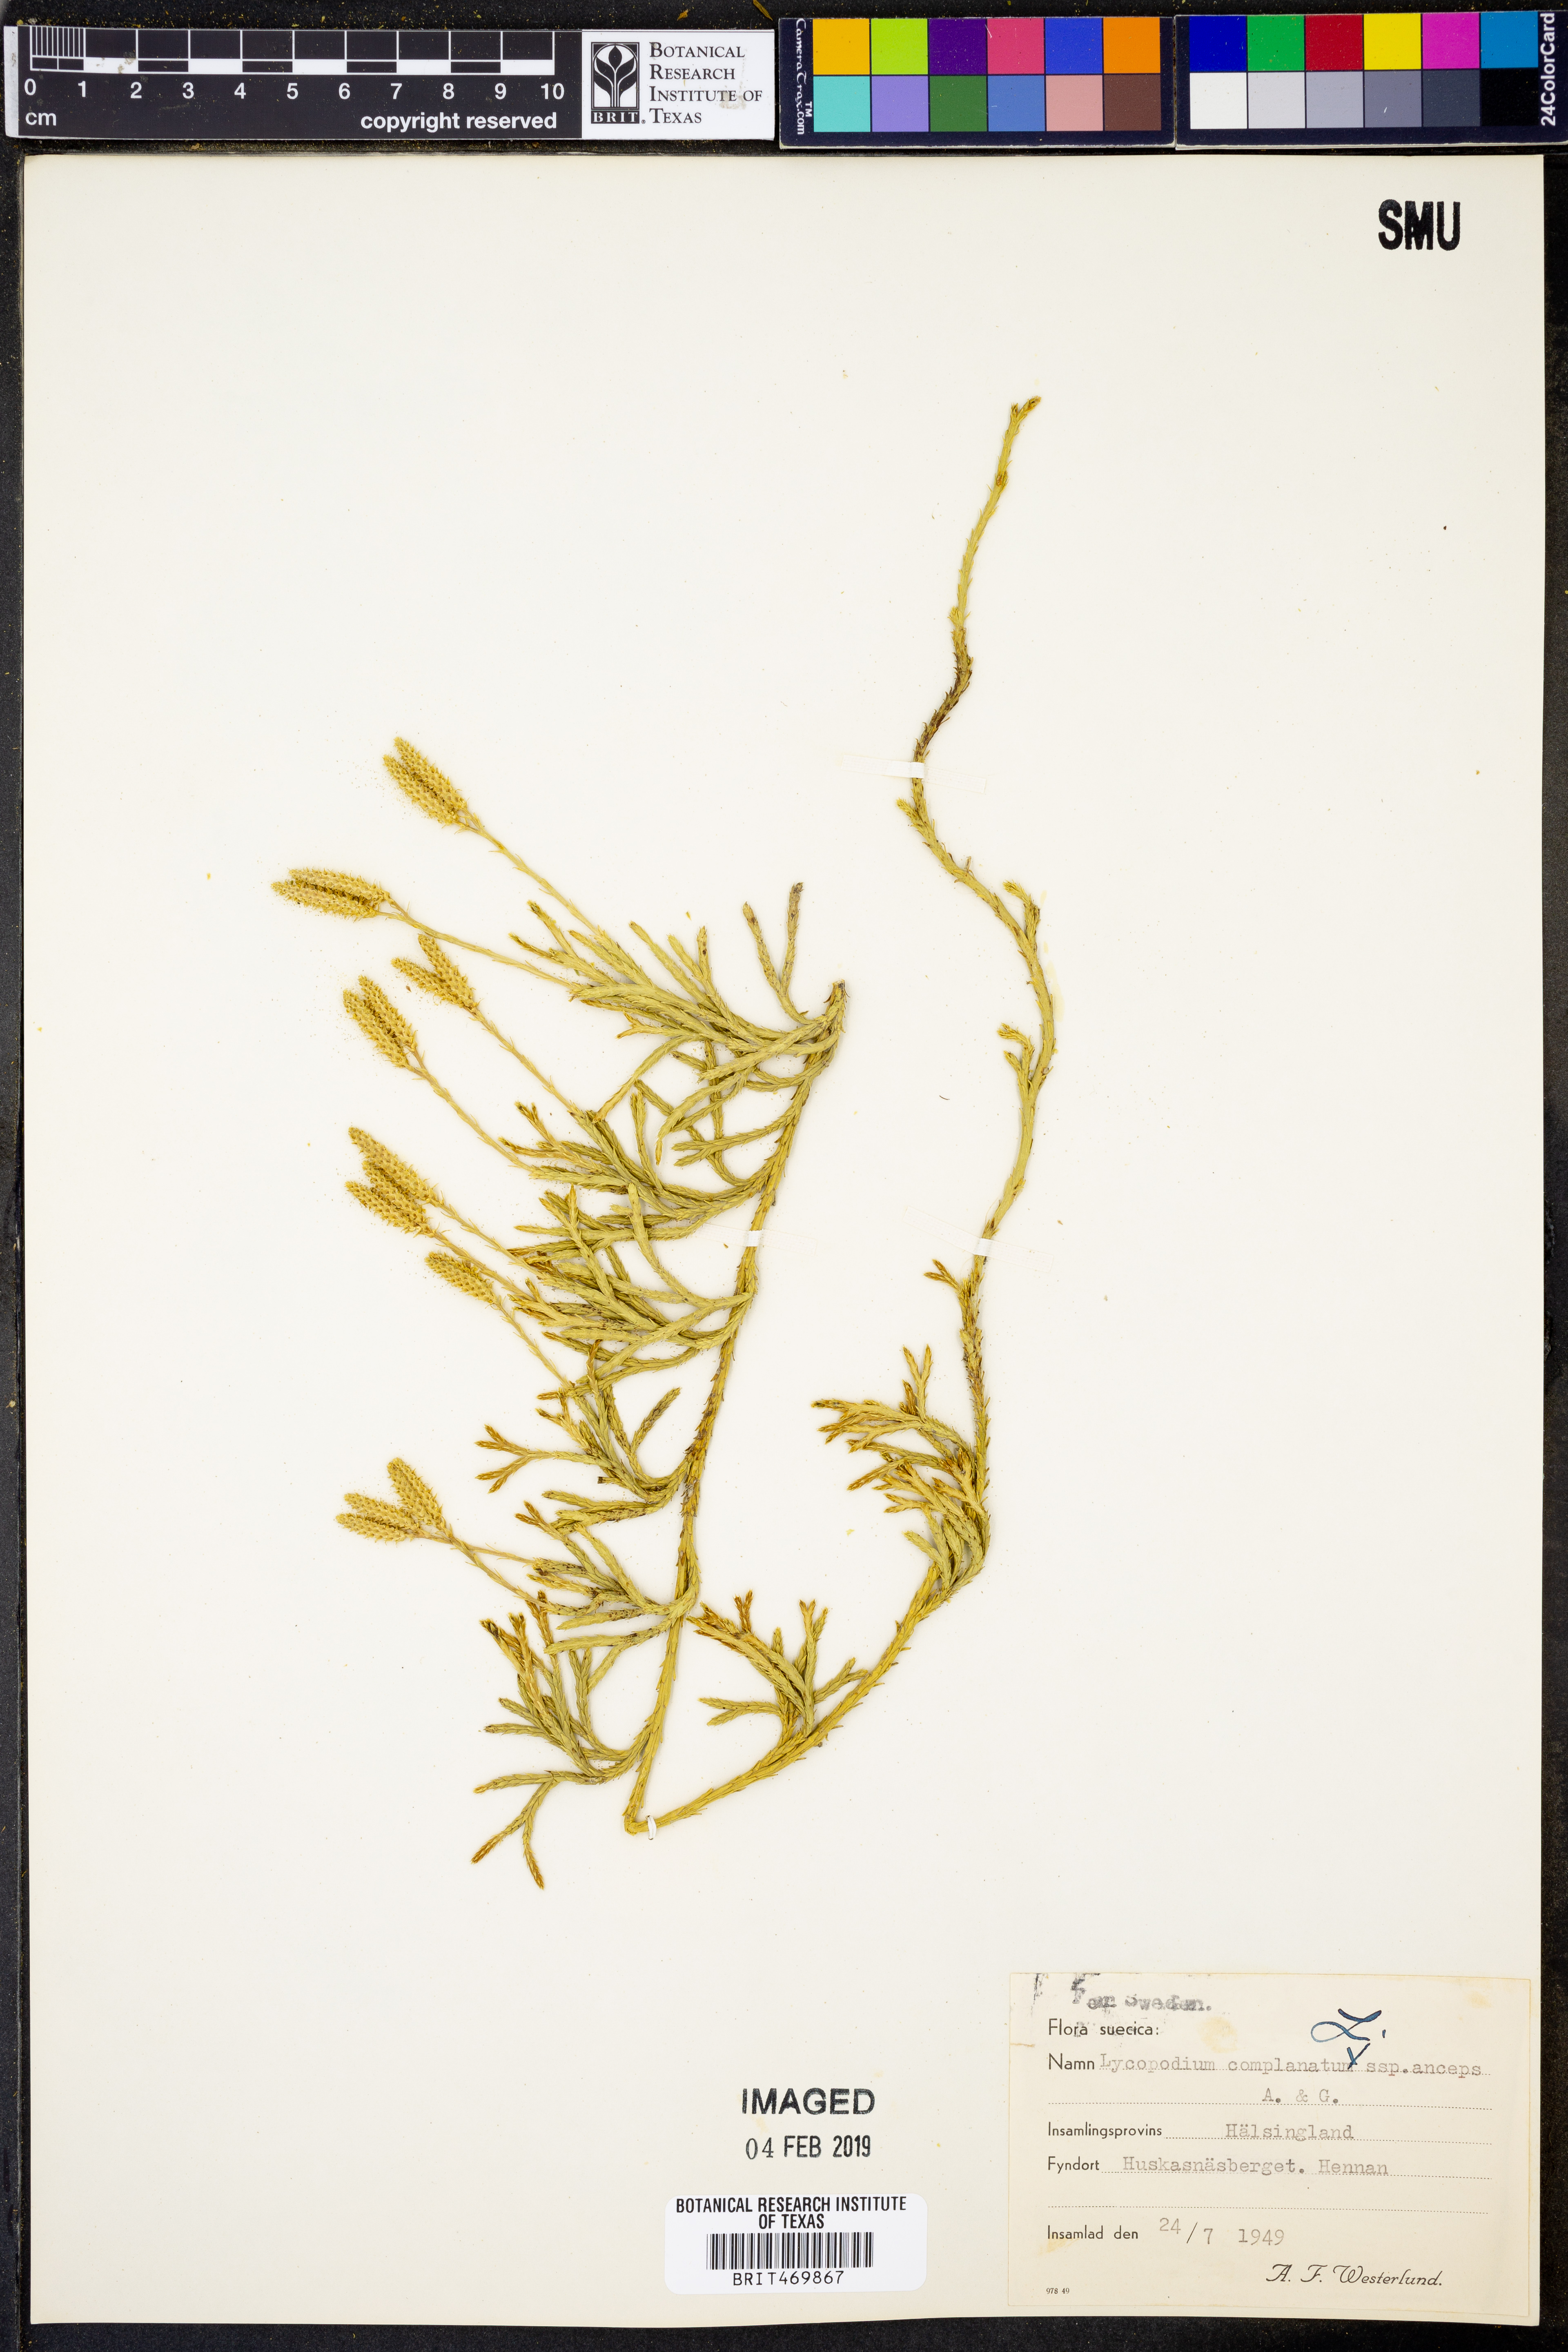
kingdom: Plantae
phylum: Tracheophyta
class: Lycopodiopsida
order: Lycopodiales
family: Lycopodiaceae
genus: Diphasiastrum
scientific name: Diphasiastrum complanatum
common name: Northern running-pine
